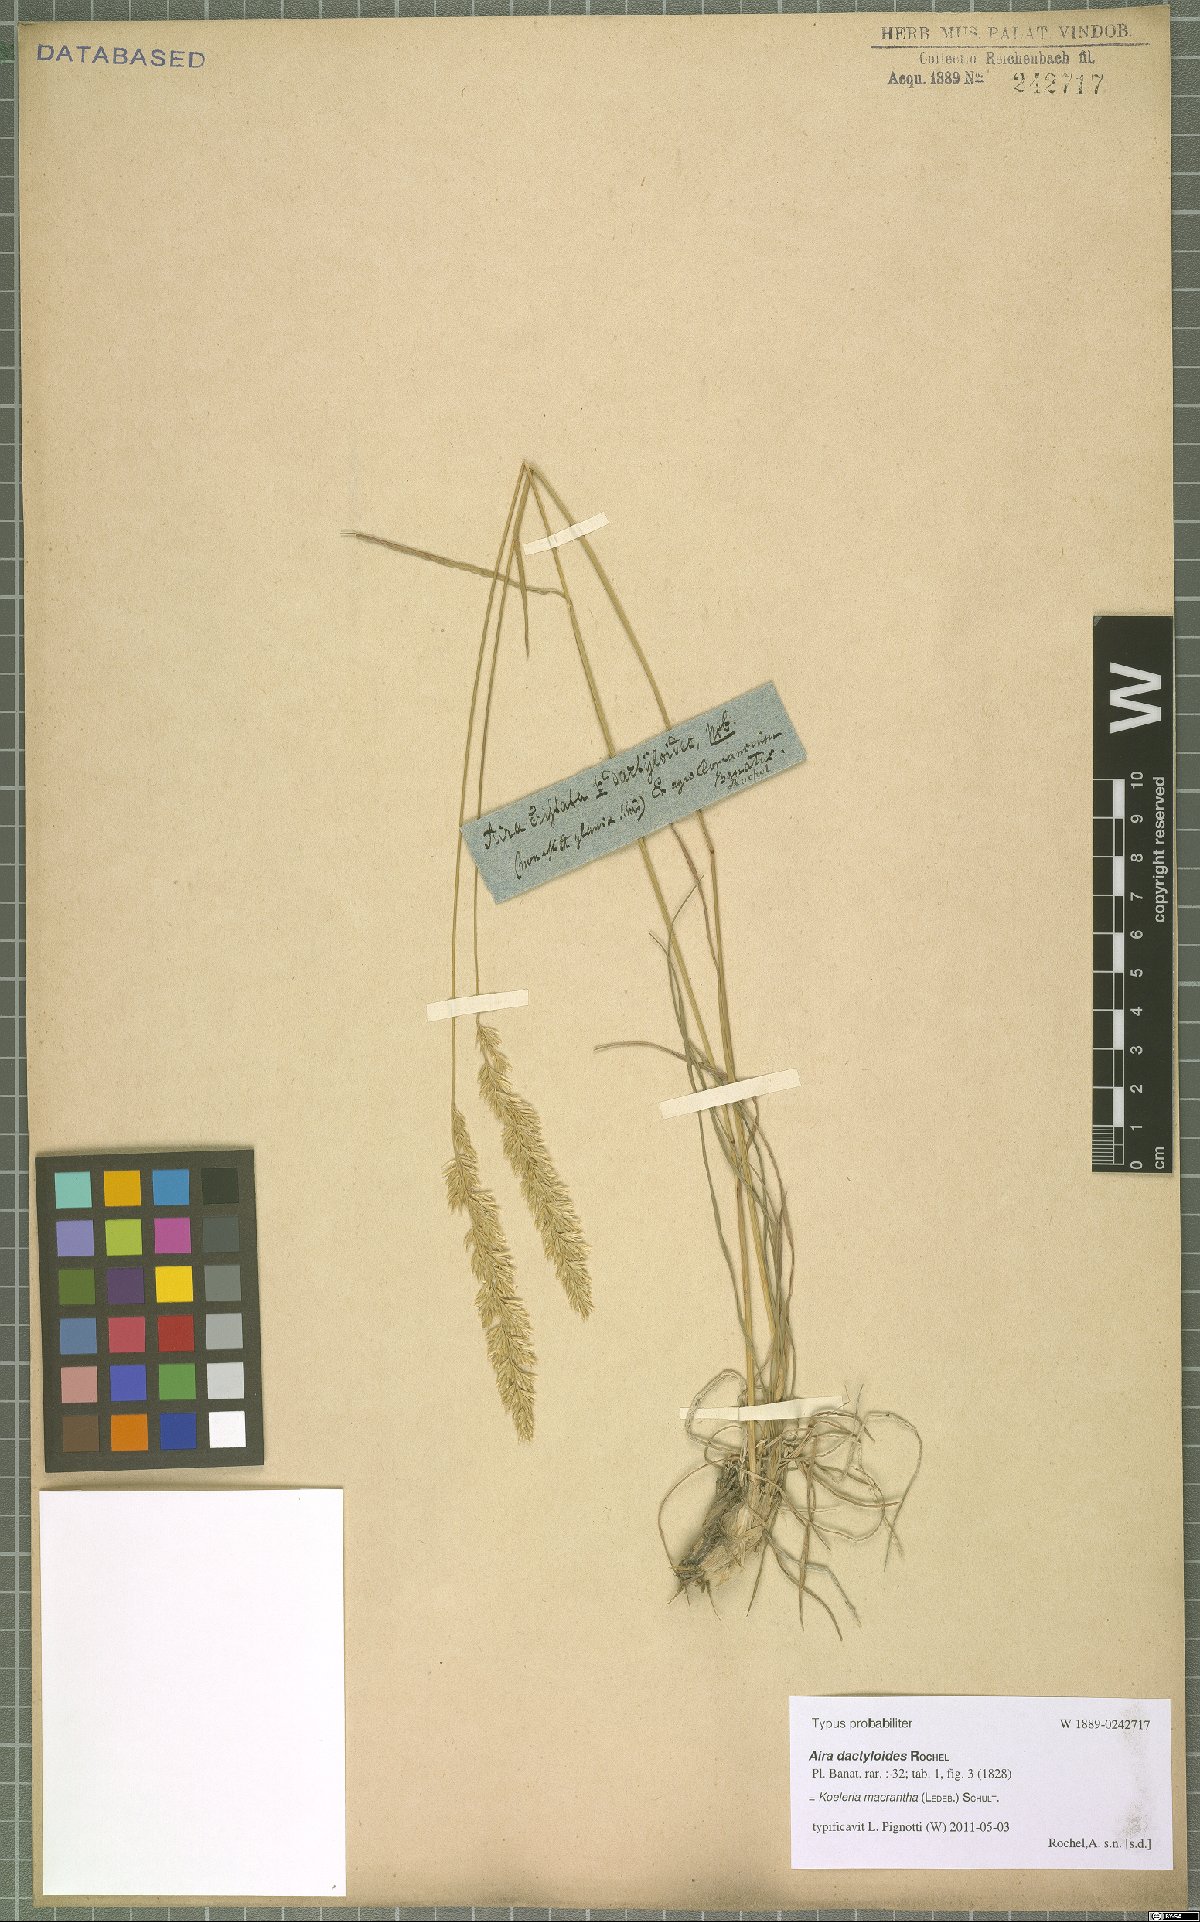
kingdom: Plantae
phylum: Tracheophyta
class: Liliopsida
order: Poales
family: Poaceae
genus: Koeleria
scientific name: Koeleria macrantha
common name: Crested hair-grass
